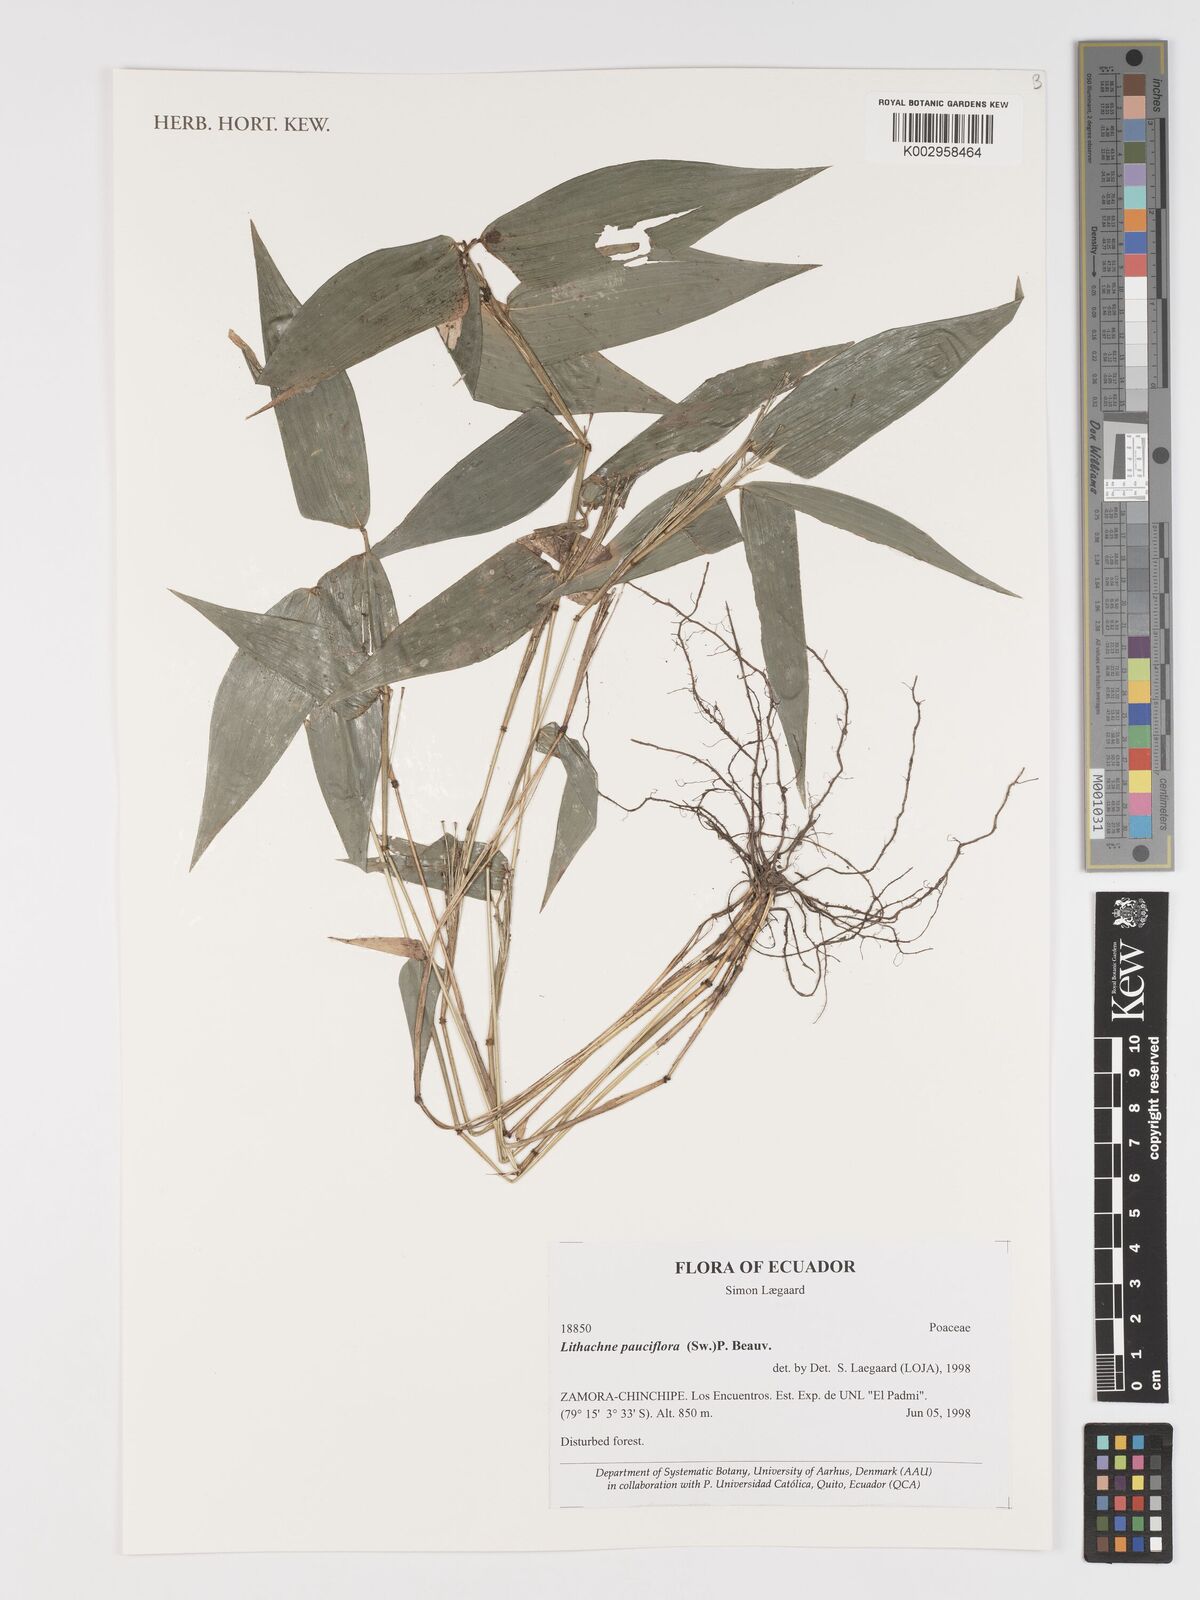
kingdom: Plantae
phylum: Tracheophyta
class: Liliopsida
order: Poales
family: Poaceae
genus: Lithachne
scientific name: Lithachne pauciflora
